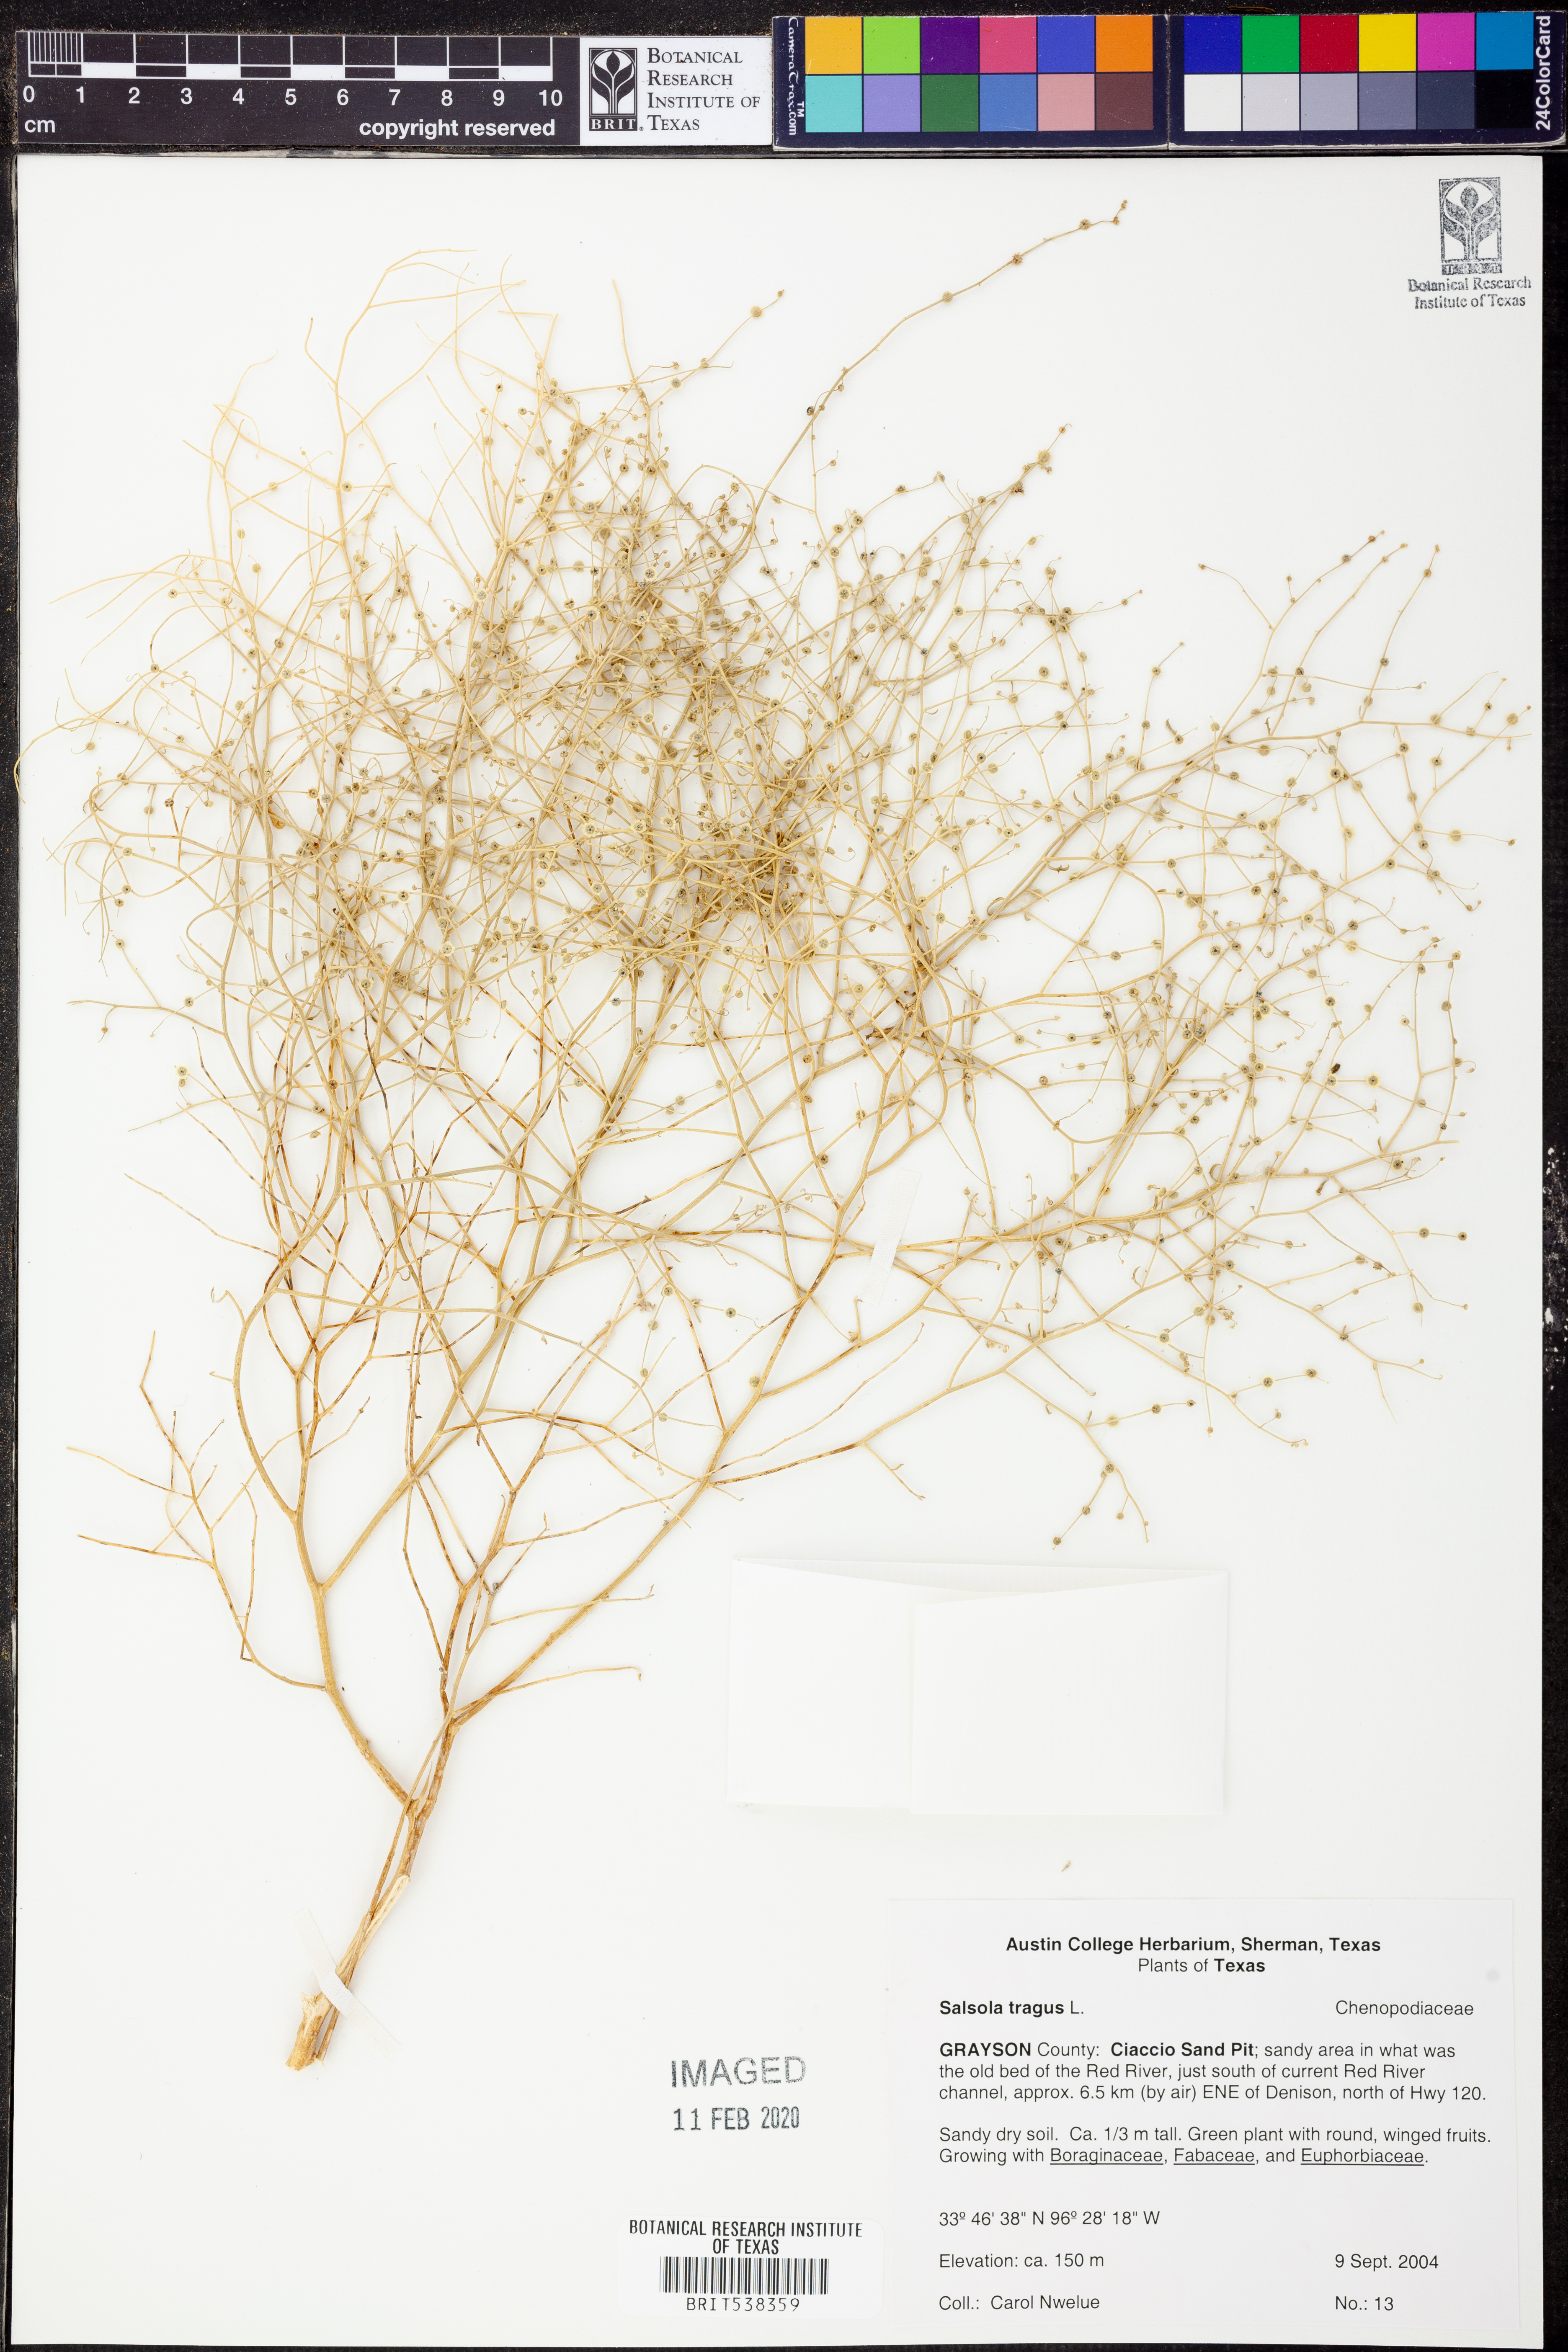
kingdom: Plantae
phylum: Tracheophyta
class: Magnoliopsida
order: Caryophyllales
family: Amaranthaceae
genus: Dysphania
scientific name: Dysphania atriplicifolia
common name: Plains tumbleweed
